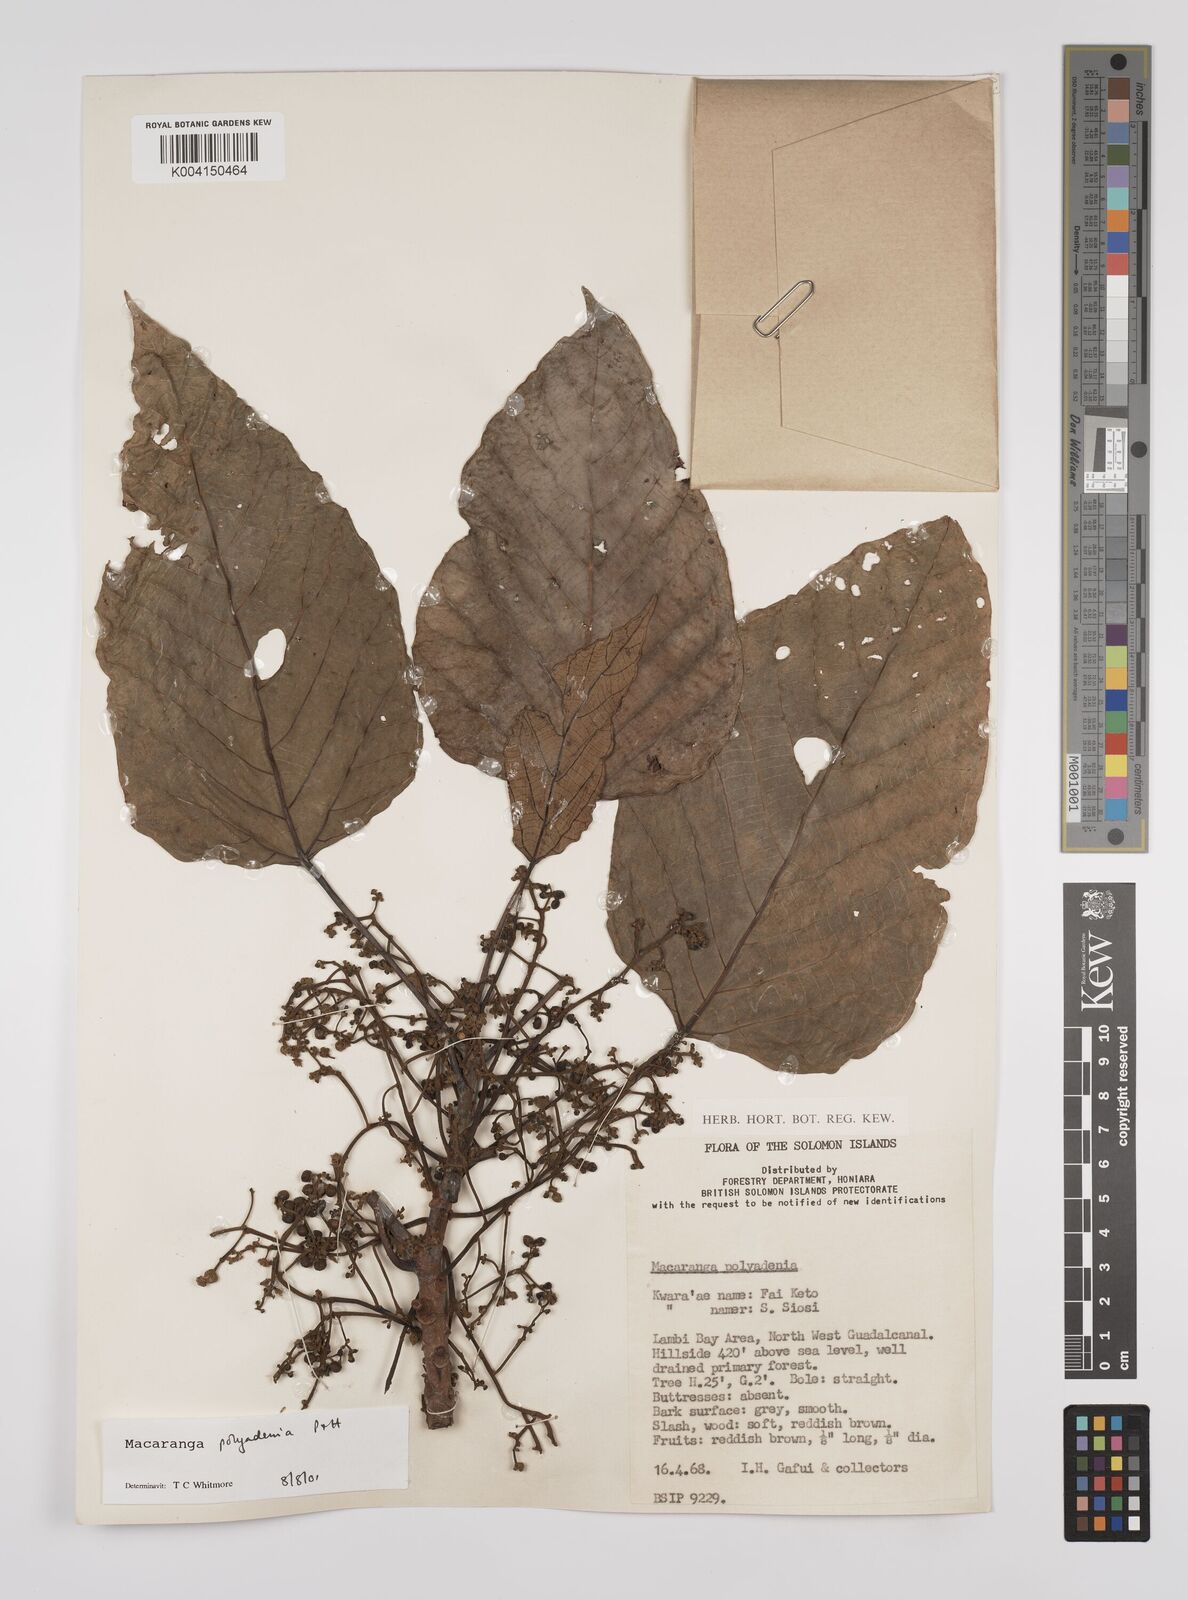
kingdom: Plantae
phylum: Tracheophyta
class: Magnoliopsida
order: Malpighiales
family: Euphorbiaceae
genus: Macaranga
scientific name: Macaranga polyadenia
